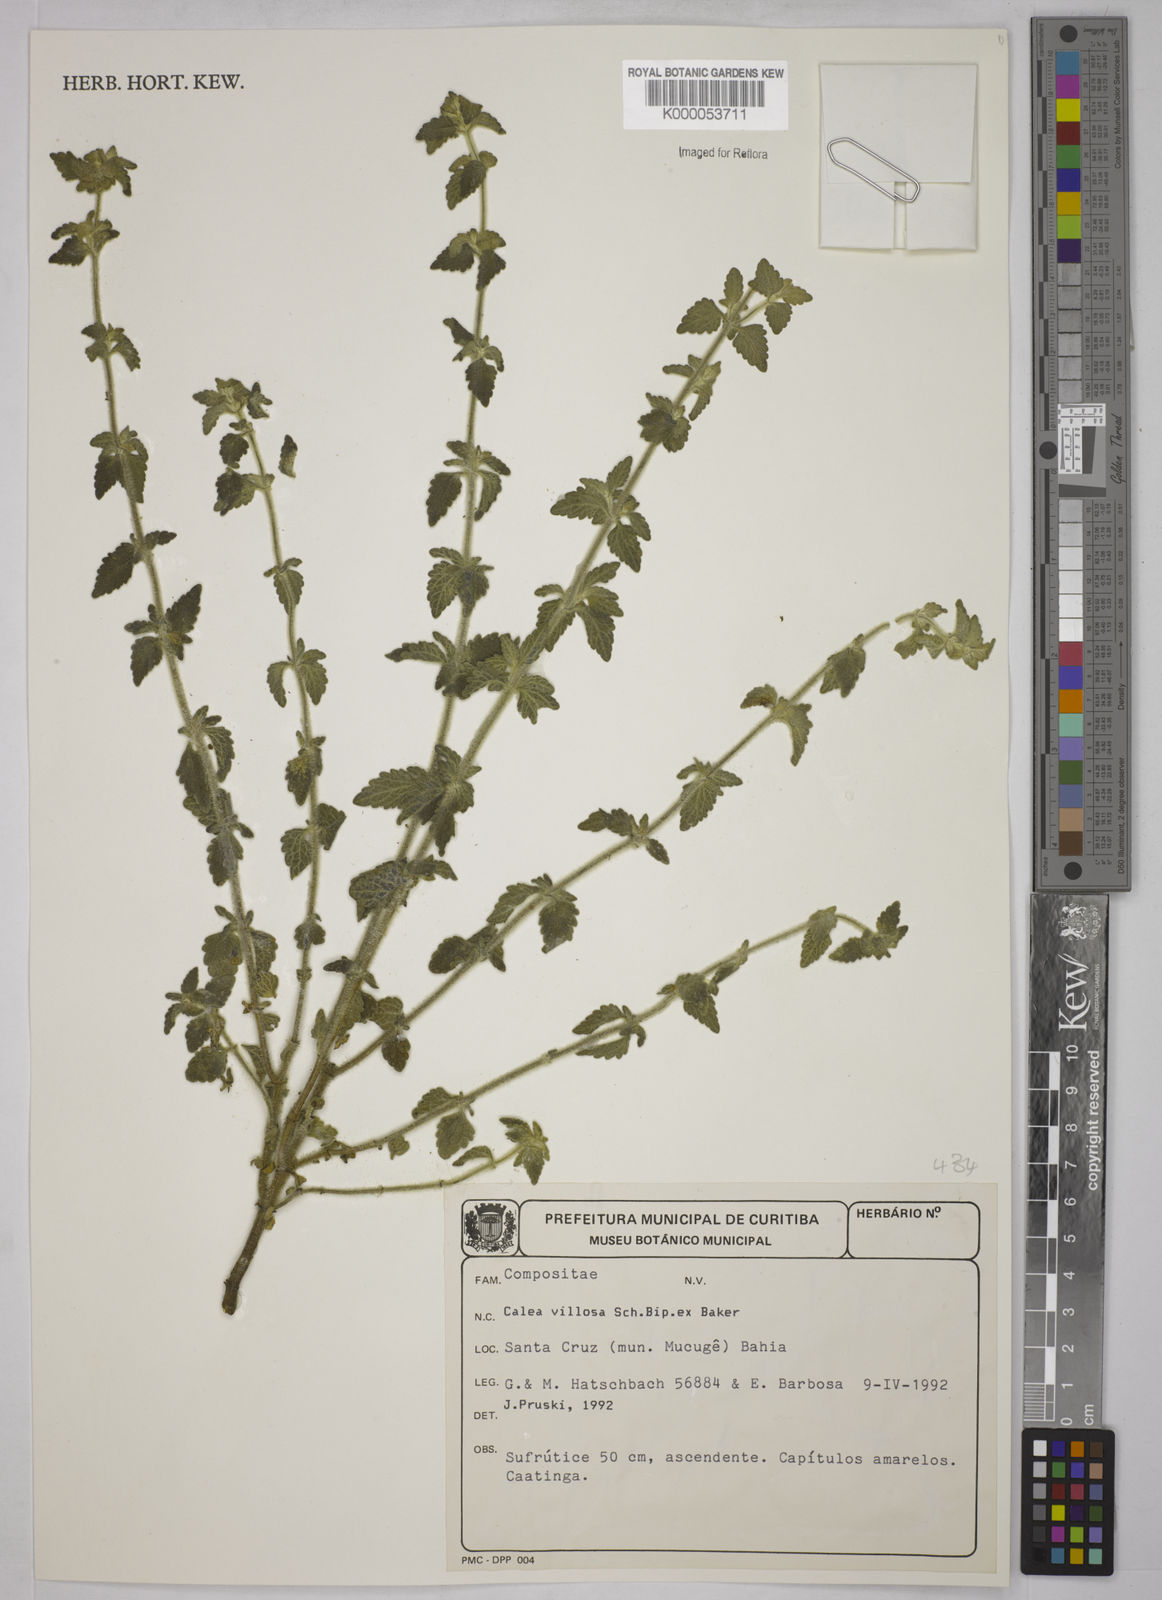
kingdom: Plantae
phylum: Tracheophyta
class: Magnoliopsida
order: Asterales
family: Asteraceae
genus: Calea
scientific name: Calea villosa
